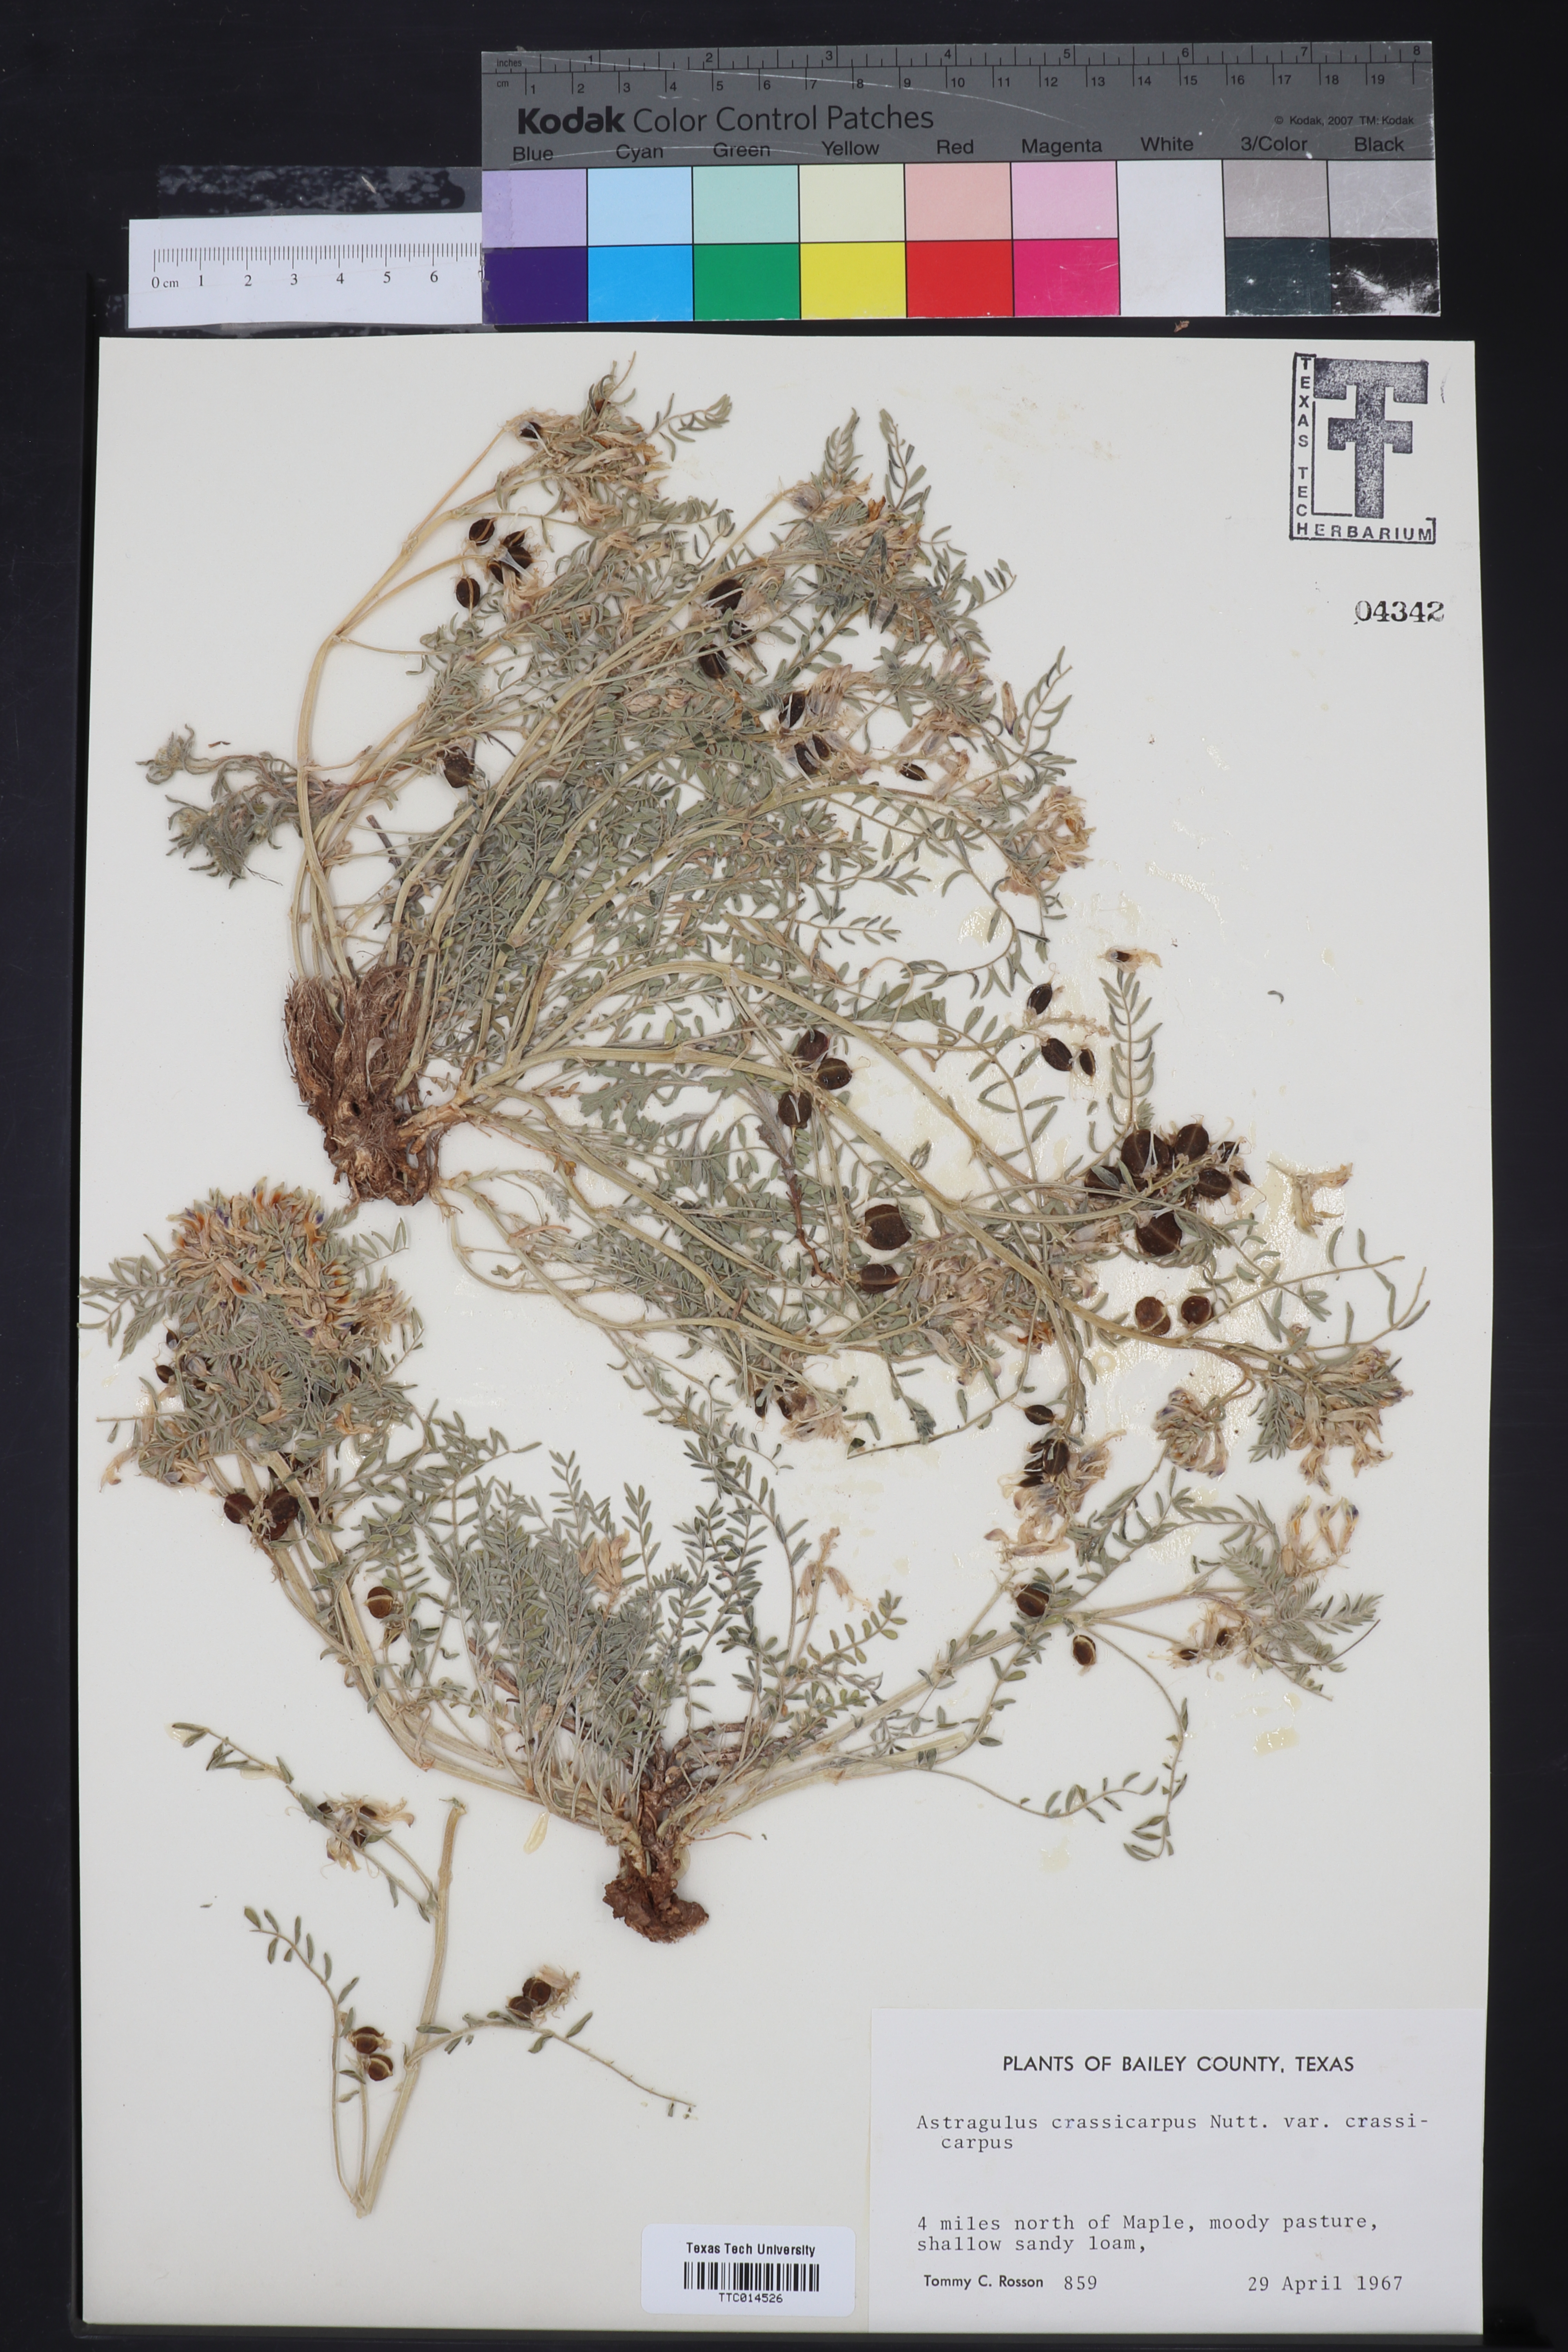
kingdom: Plantae
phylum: Tracheophyta
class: Magnoliopsida
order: Fabales
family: Fabaceae
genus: Astragalus
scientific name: Astragalus crassicarpus
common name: Ground-plum milk-vetch
